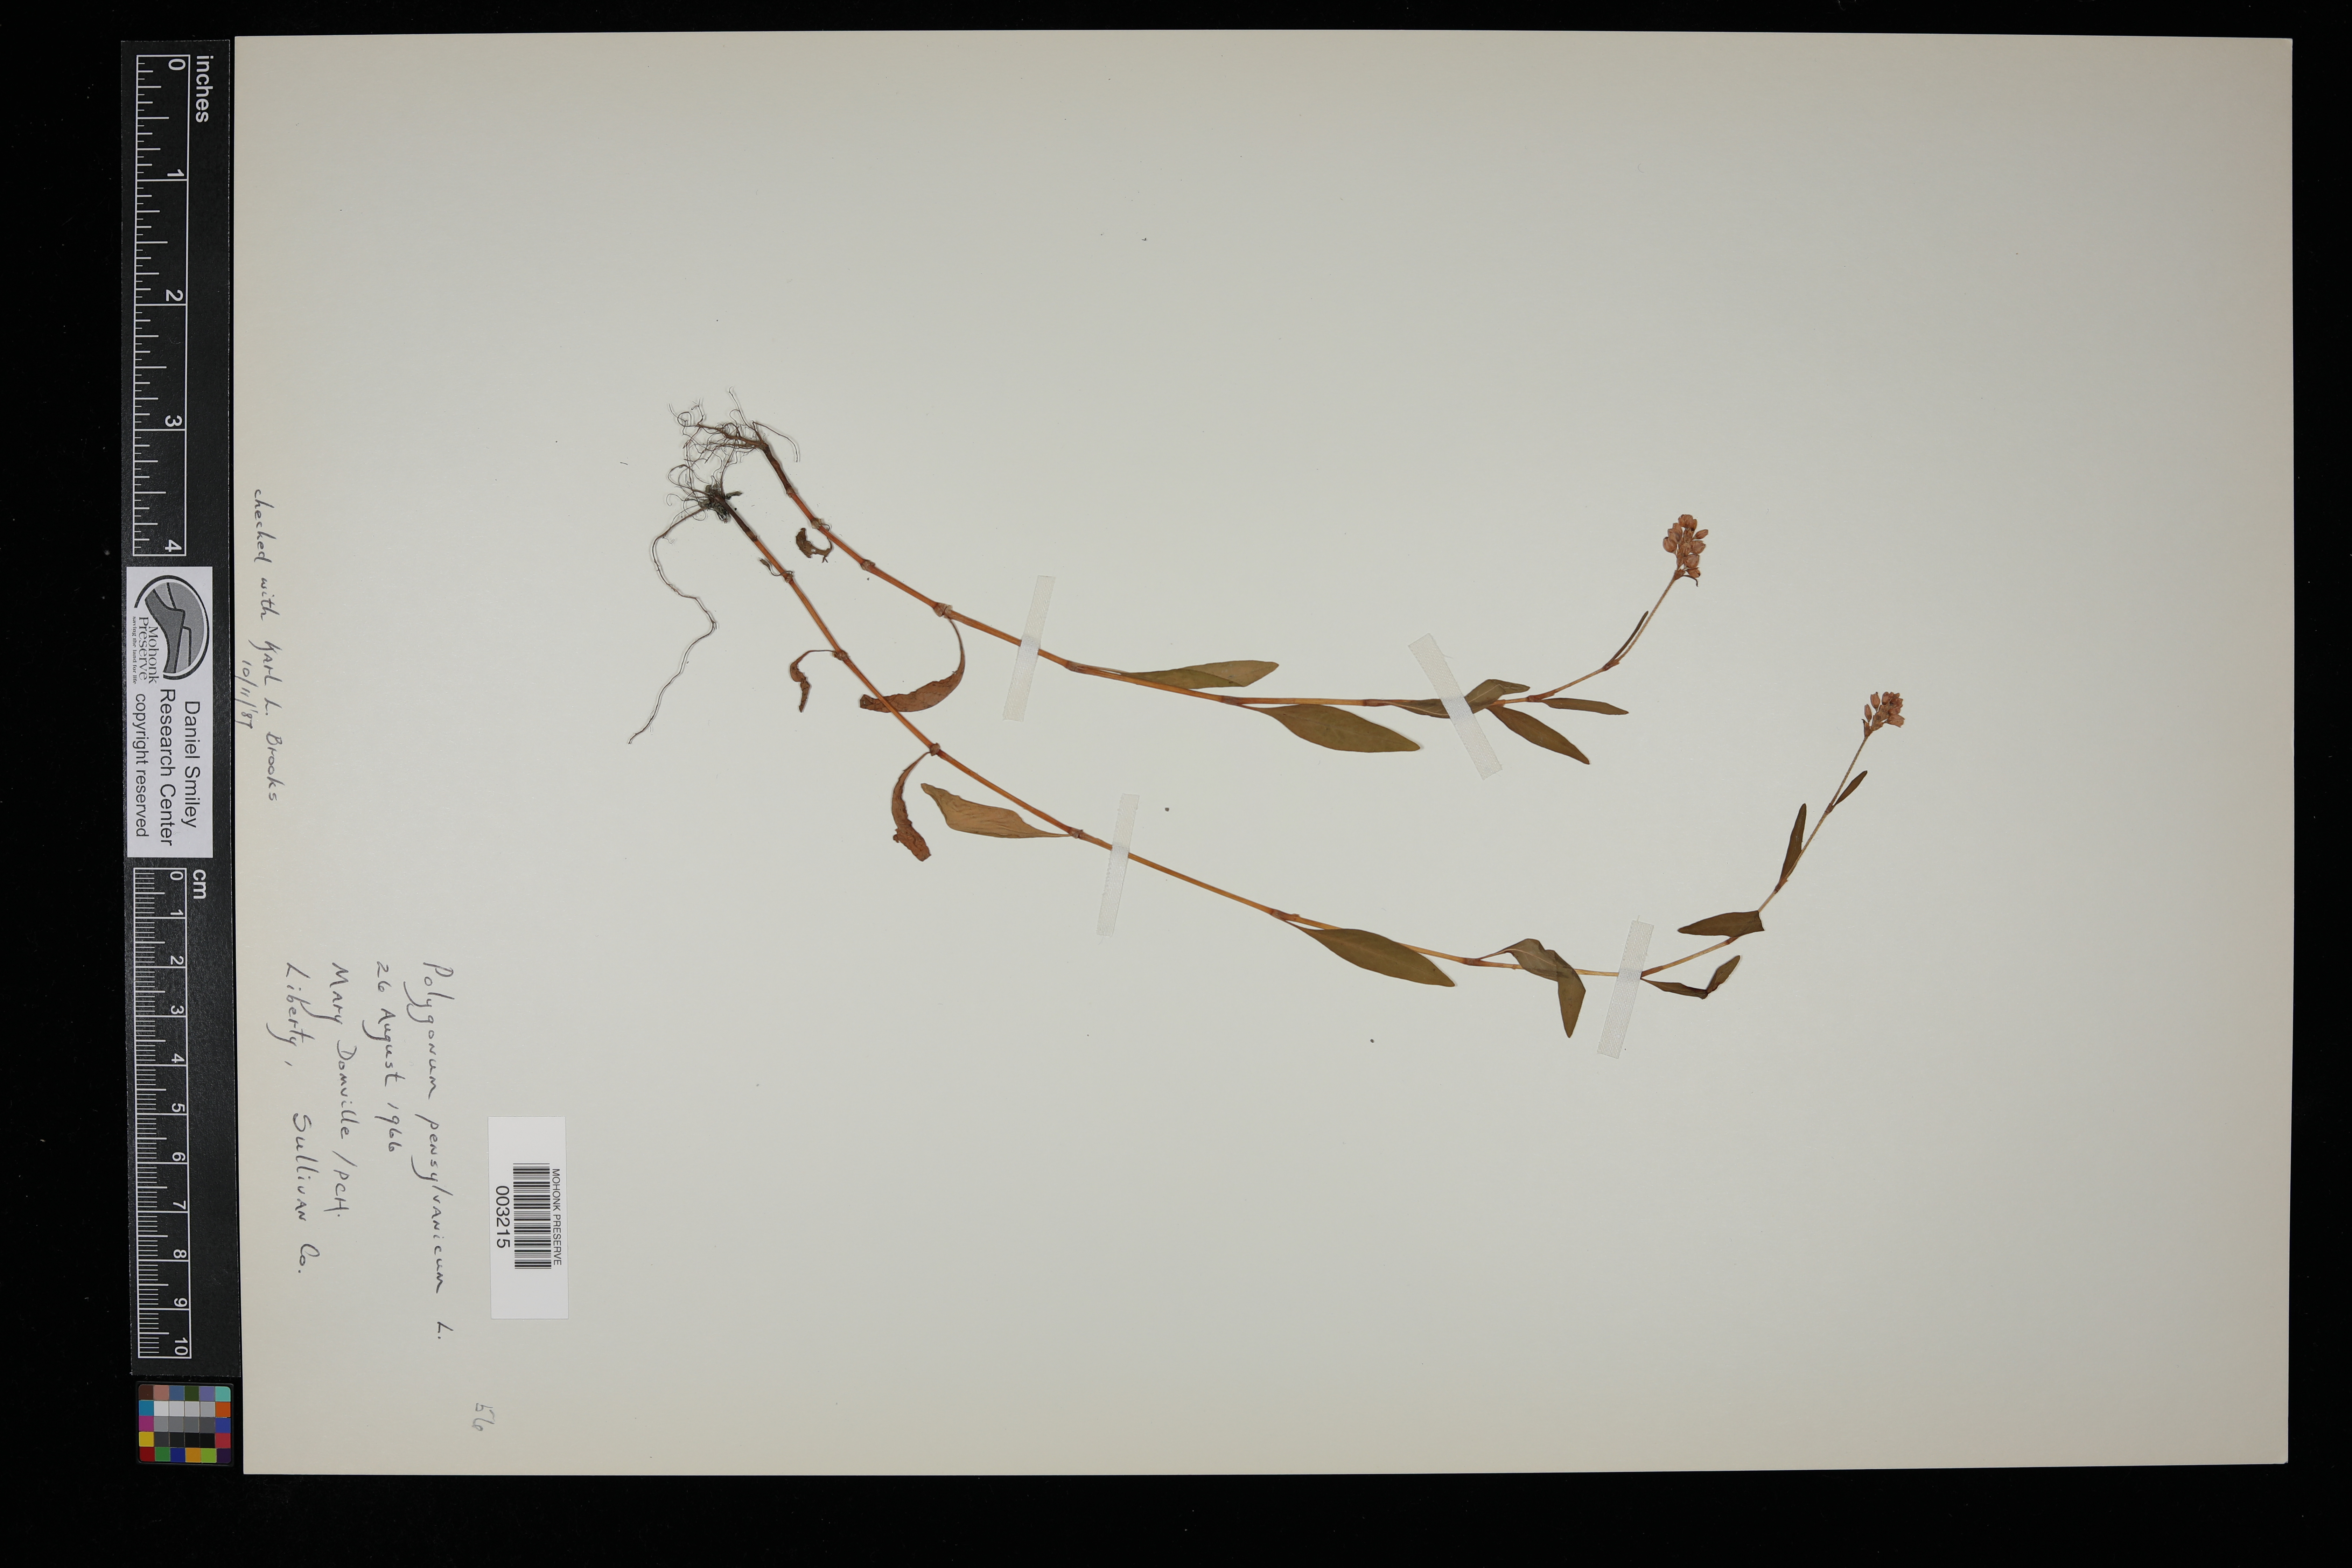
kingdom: Plantae
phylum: Tracheophyta
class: Magnoliopsida
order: Caryophyllales
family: Polygonaceae
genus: Persicaria
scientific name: Persicaria pensylvanica
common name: Pinkweed
